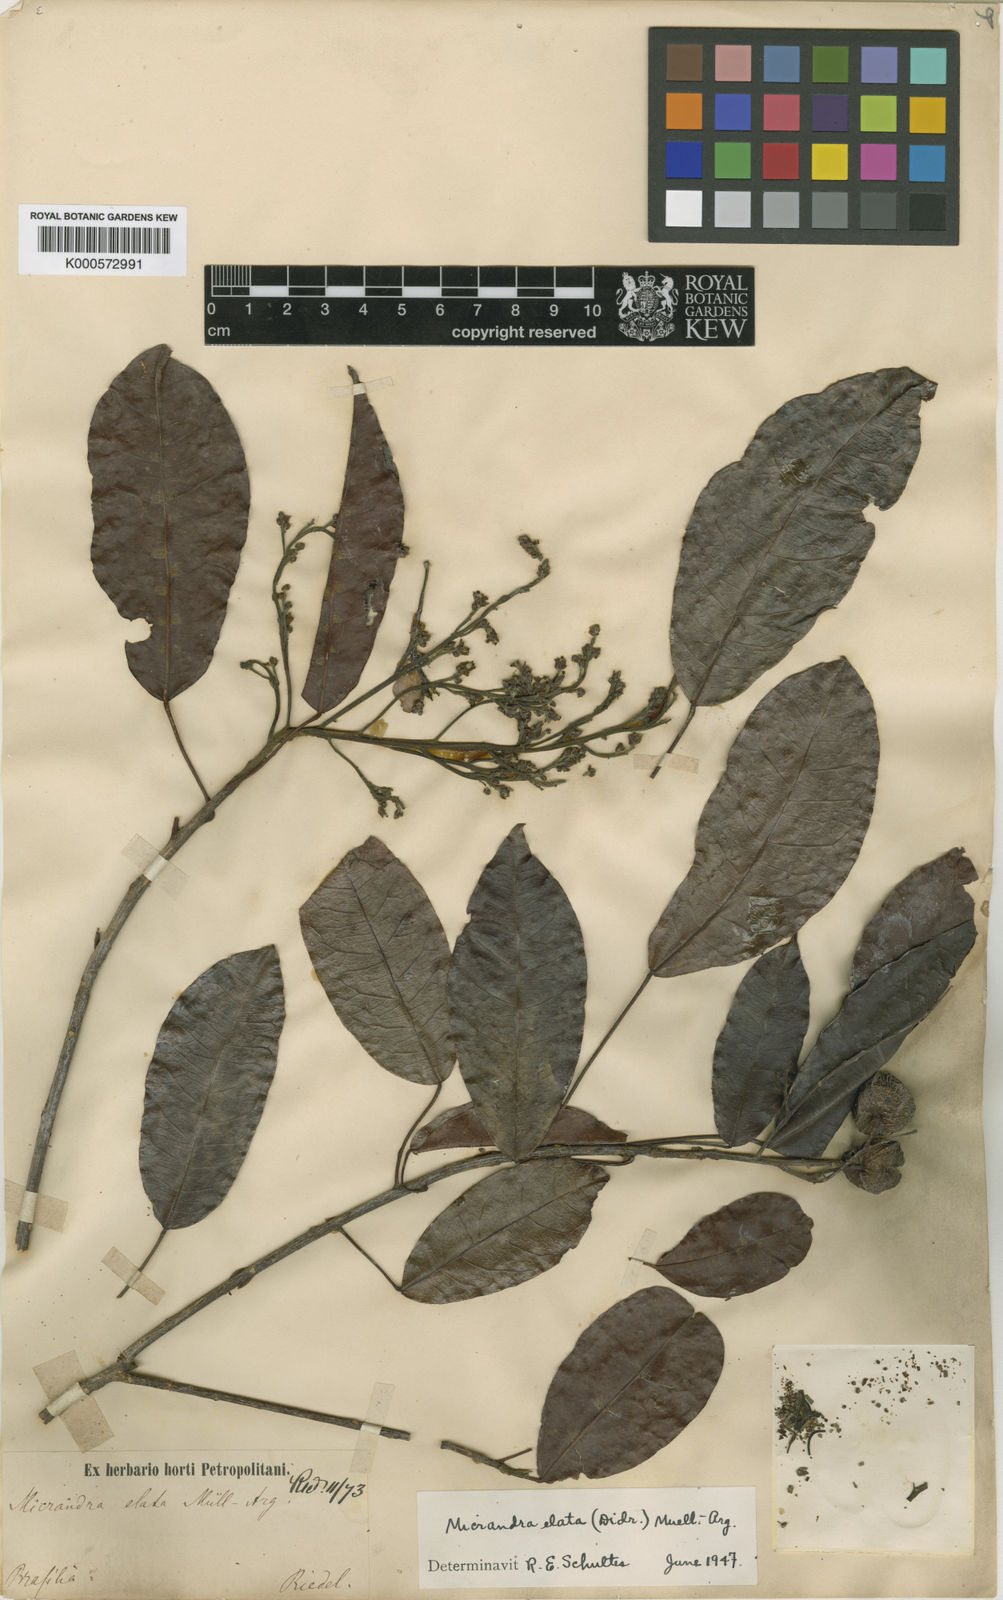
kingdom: Plantae
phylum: Tracheophyta
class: Magnoliopsida
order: Malpighiales
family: Euphorbiaceae
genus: Micrandra
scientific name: Micrandra
